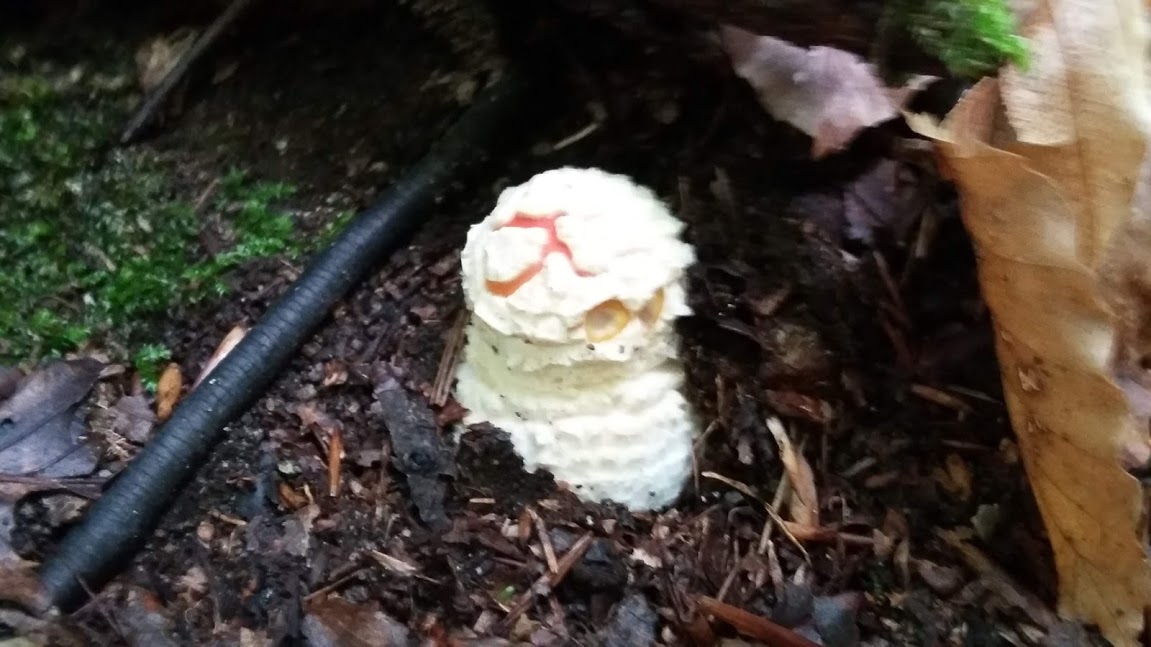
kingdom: Fungi
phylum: Basidiomycota
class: Agaricomycetes
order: Agaricales
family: Amanitaceae
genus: Amanita
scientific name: Amanita muscaria
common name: rød fluesvamp
